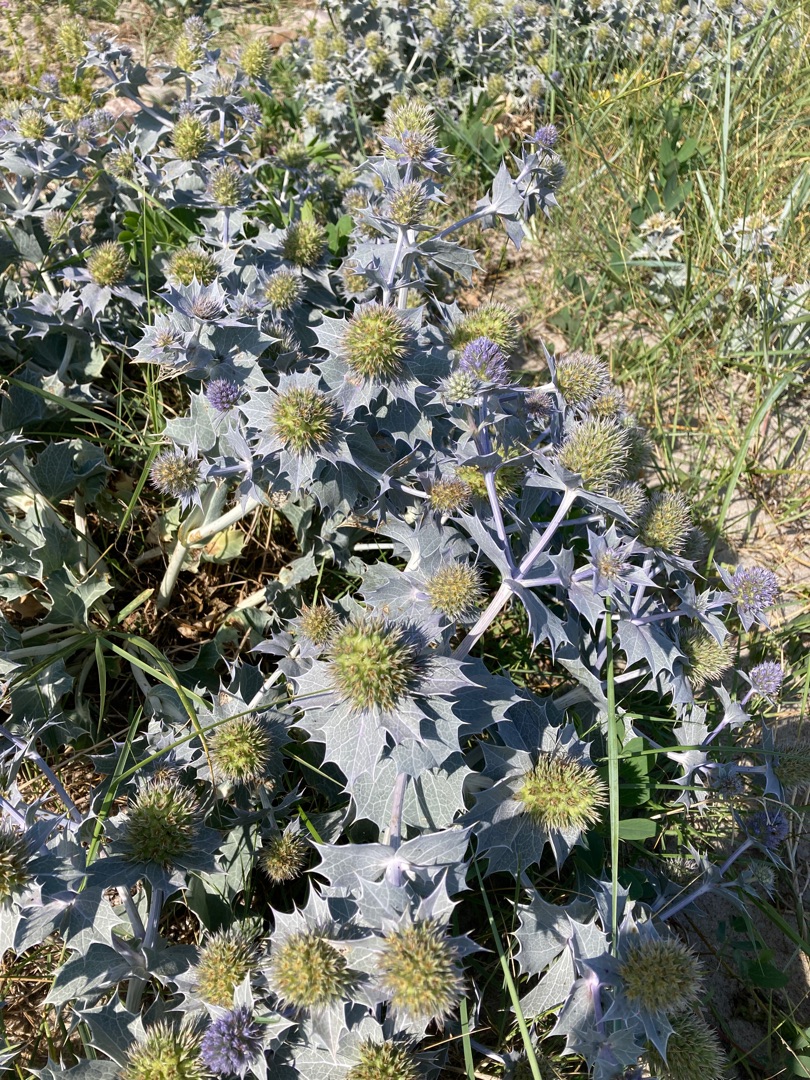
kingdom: Plantae
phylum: Tracheophyta
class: Magnoliopsida
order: Apiales
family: Apiaceae
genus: Eryngium
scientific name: Eryngium maritimum
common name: Strand-mandstro
